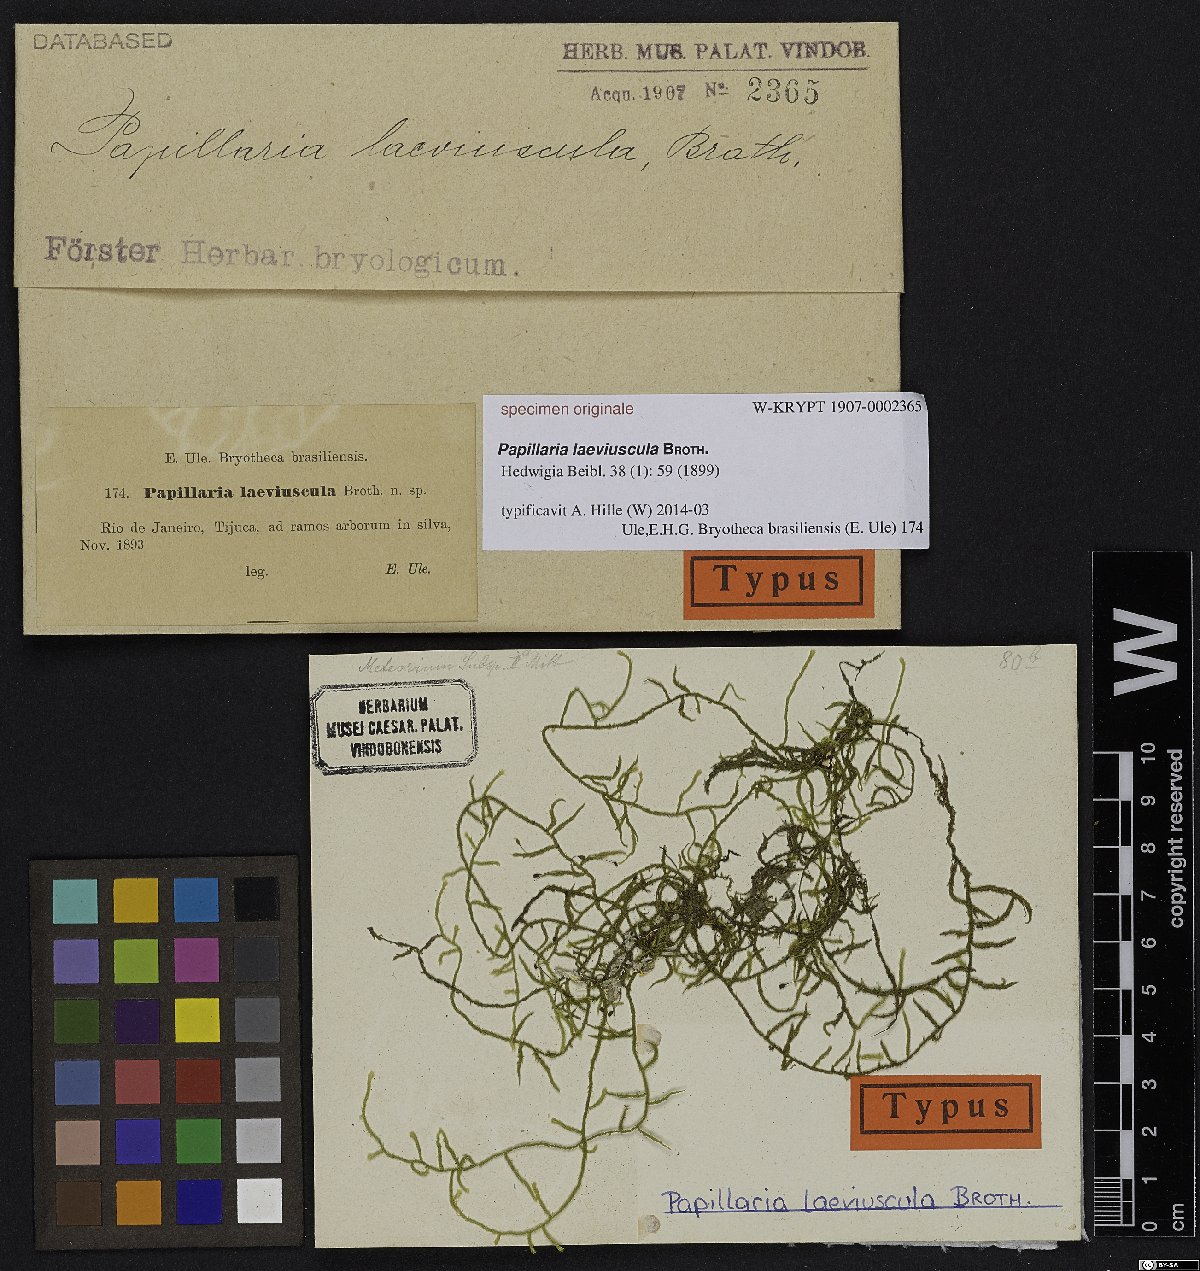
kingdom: Plantae
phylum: Bryophyta
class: Bryopsida
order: Hypnales
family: Meteoriaceae
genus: Papillaria
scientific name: Papillaria
